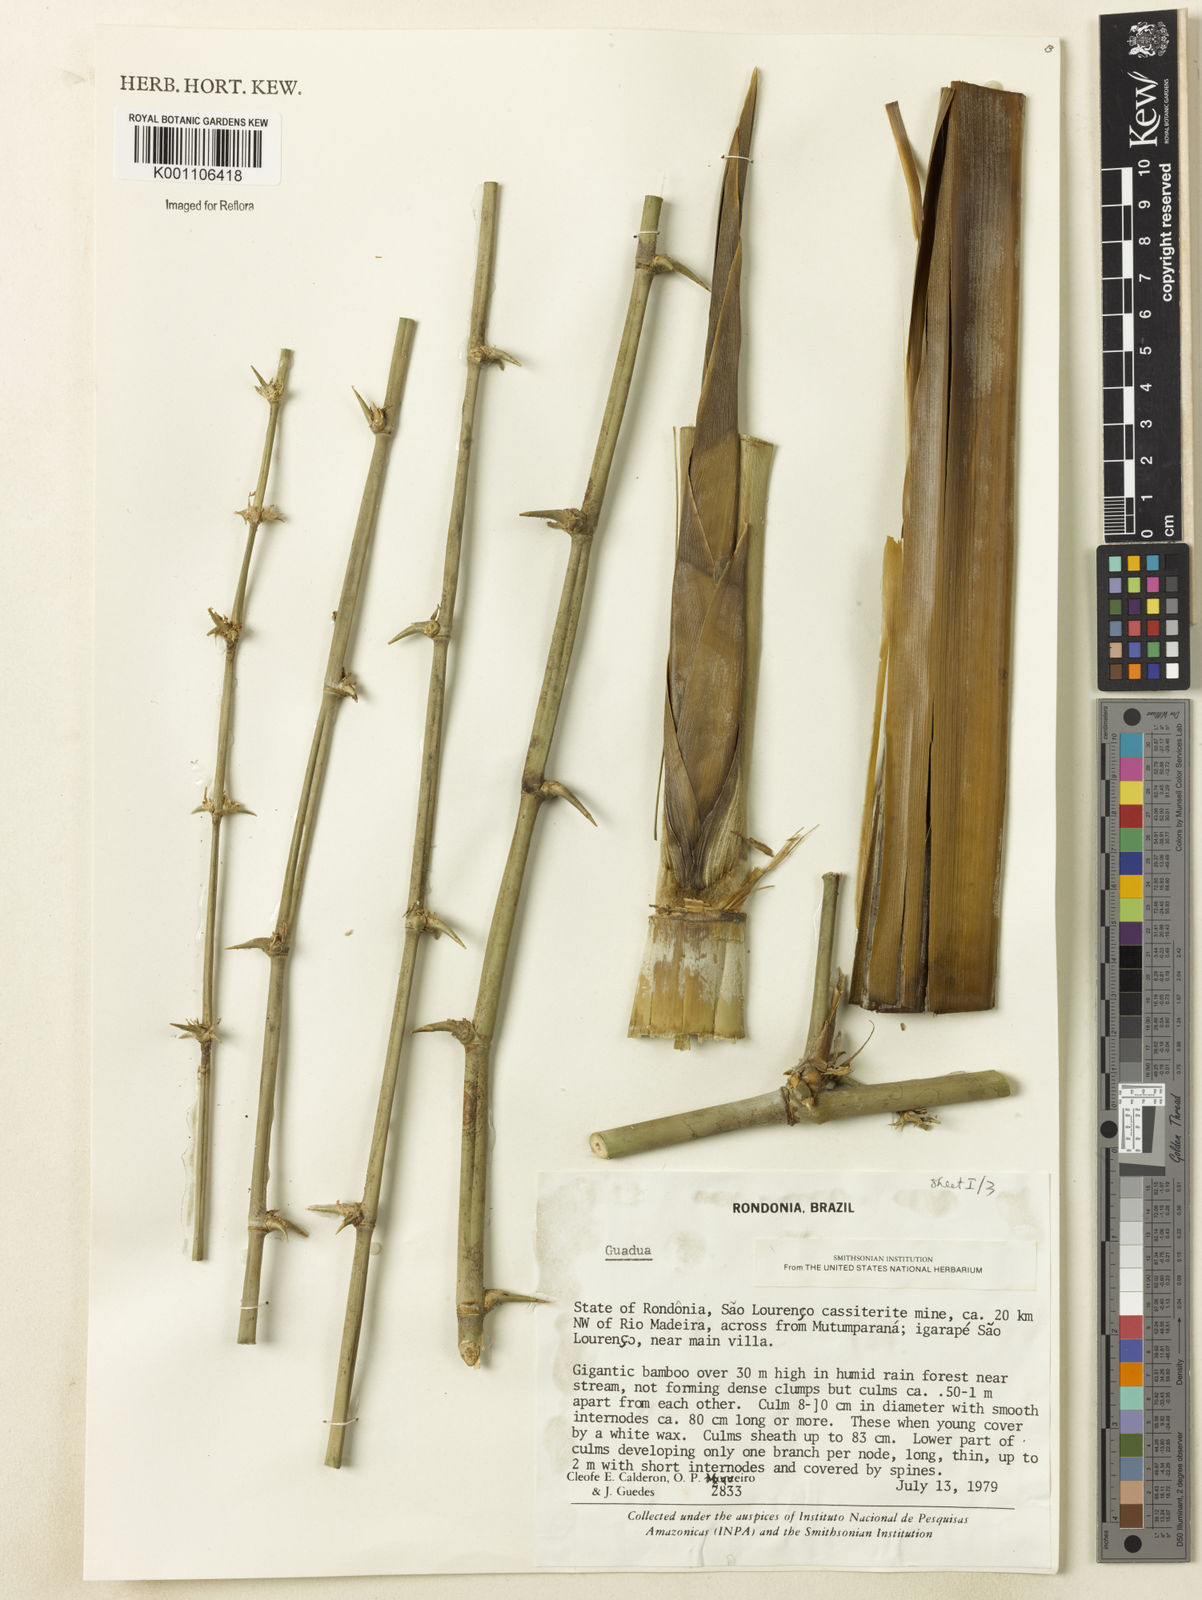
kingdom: Plantae
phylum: Tracheophyta
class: Liliopsida
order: Poales
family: Poaceae
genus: Guadua
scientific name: Guadua
